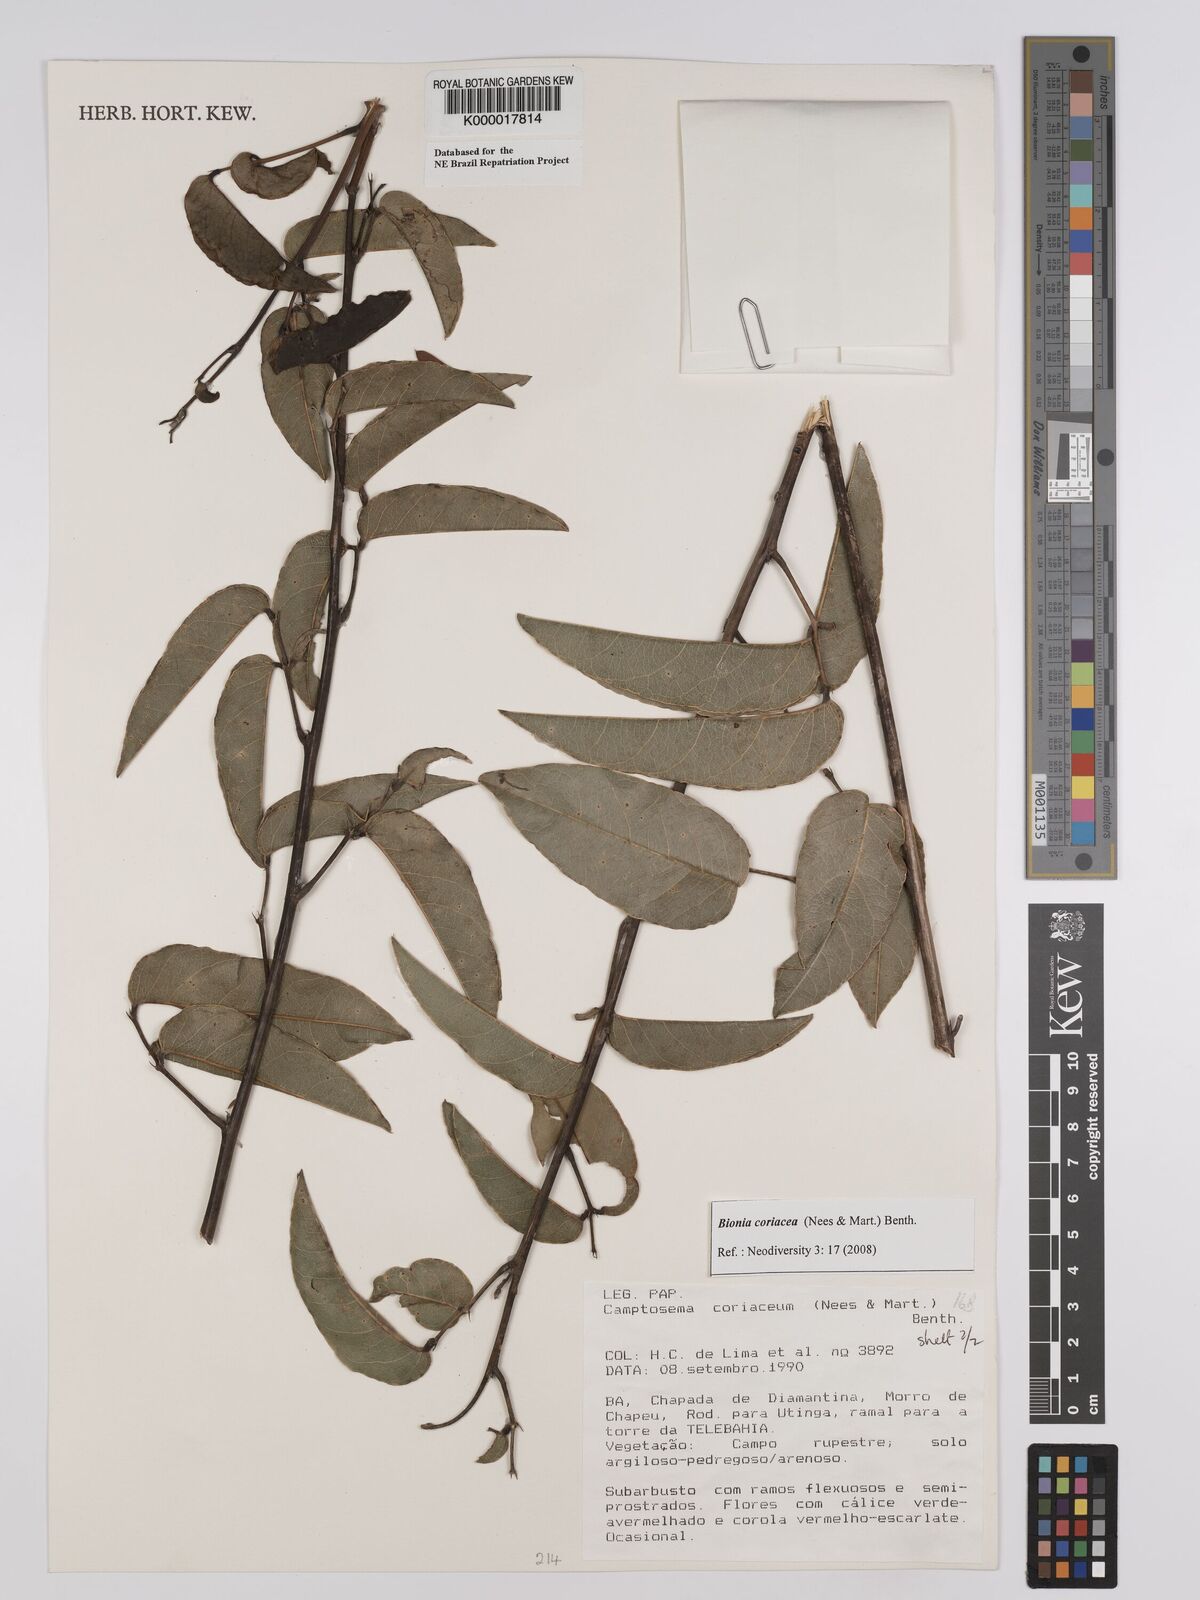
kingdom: Plantae
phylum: Tracheophyta
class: Magnoliopsida
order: Fabales
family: Fabaceae
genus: Camptosema
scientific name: Camptosema coriaceum
